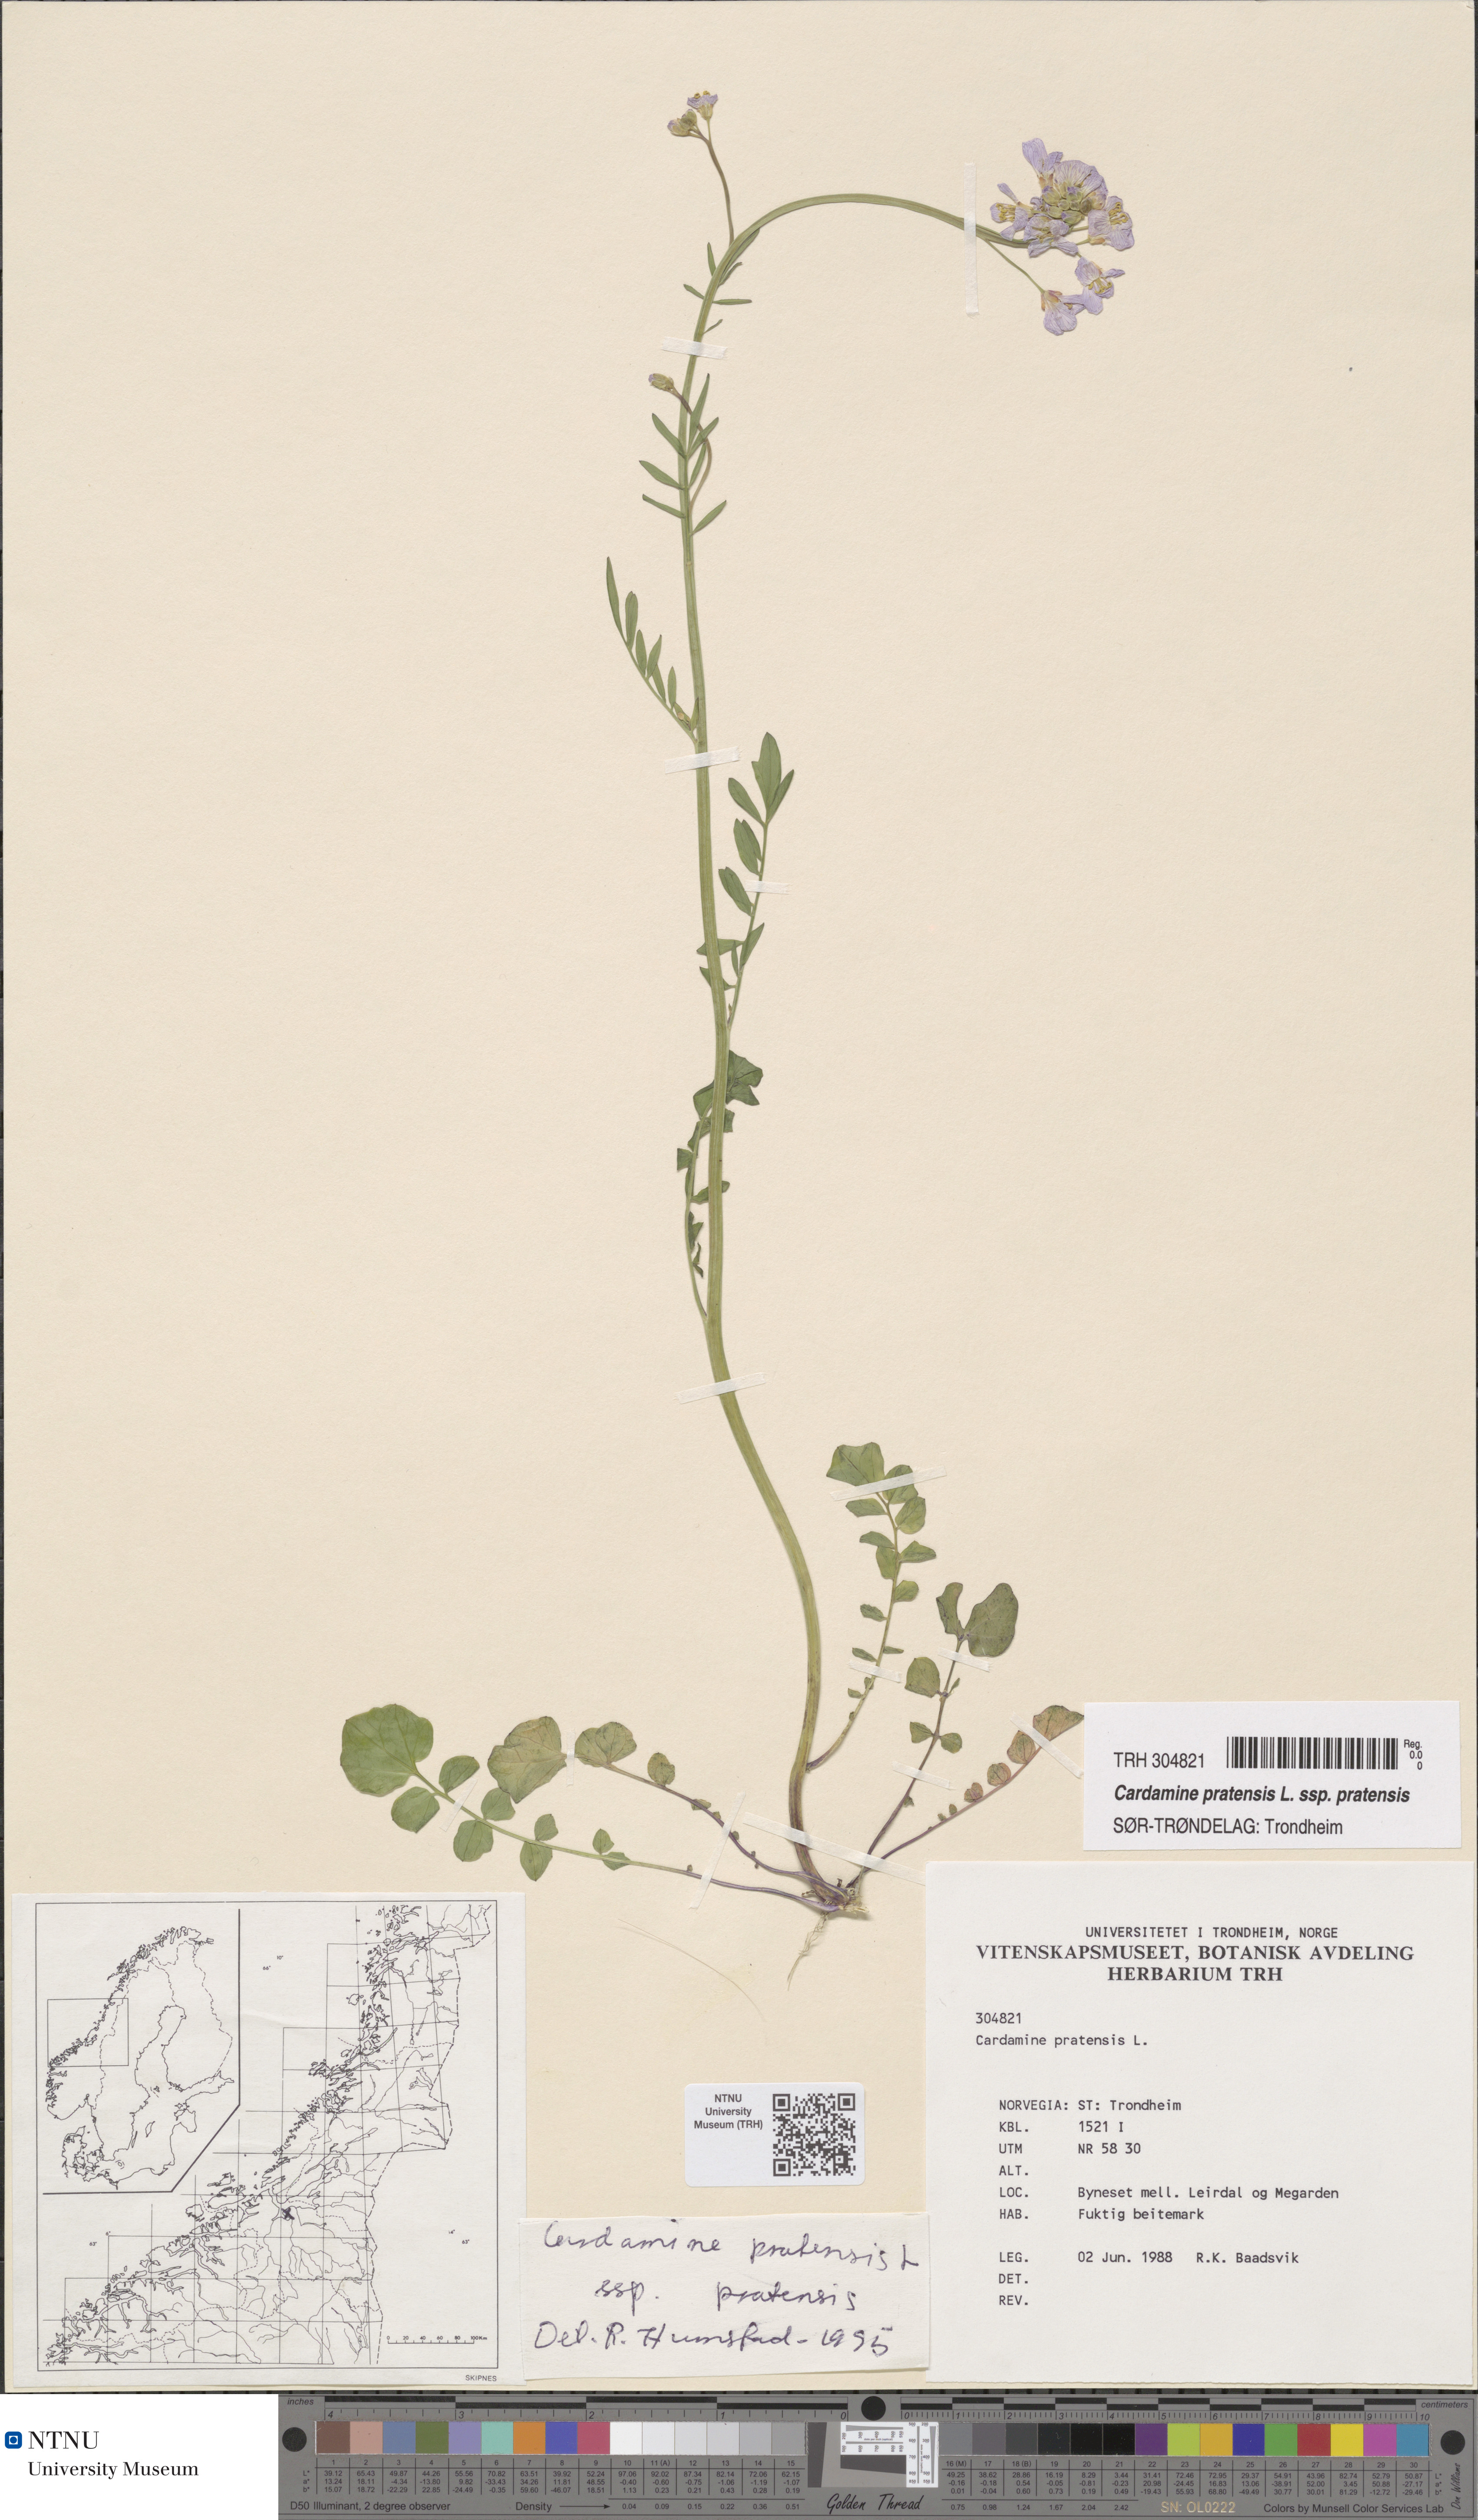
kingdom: Plantae
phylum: Tracheophyta
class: Magnoliopsida
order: Brassicales
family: Brassicaceae
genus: Cardamine
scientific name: Cardamine pratensis
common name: Cuckoo flower
